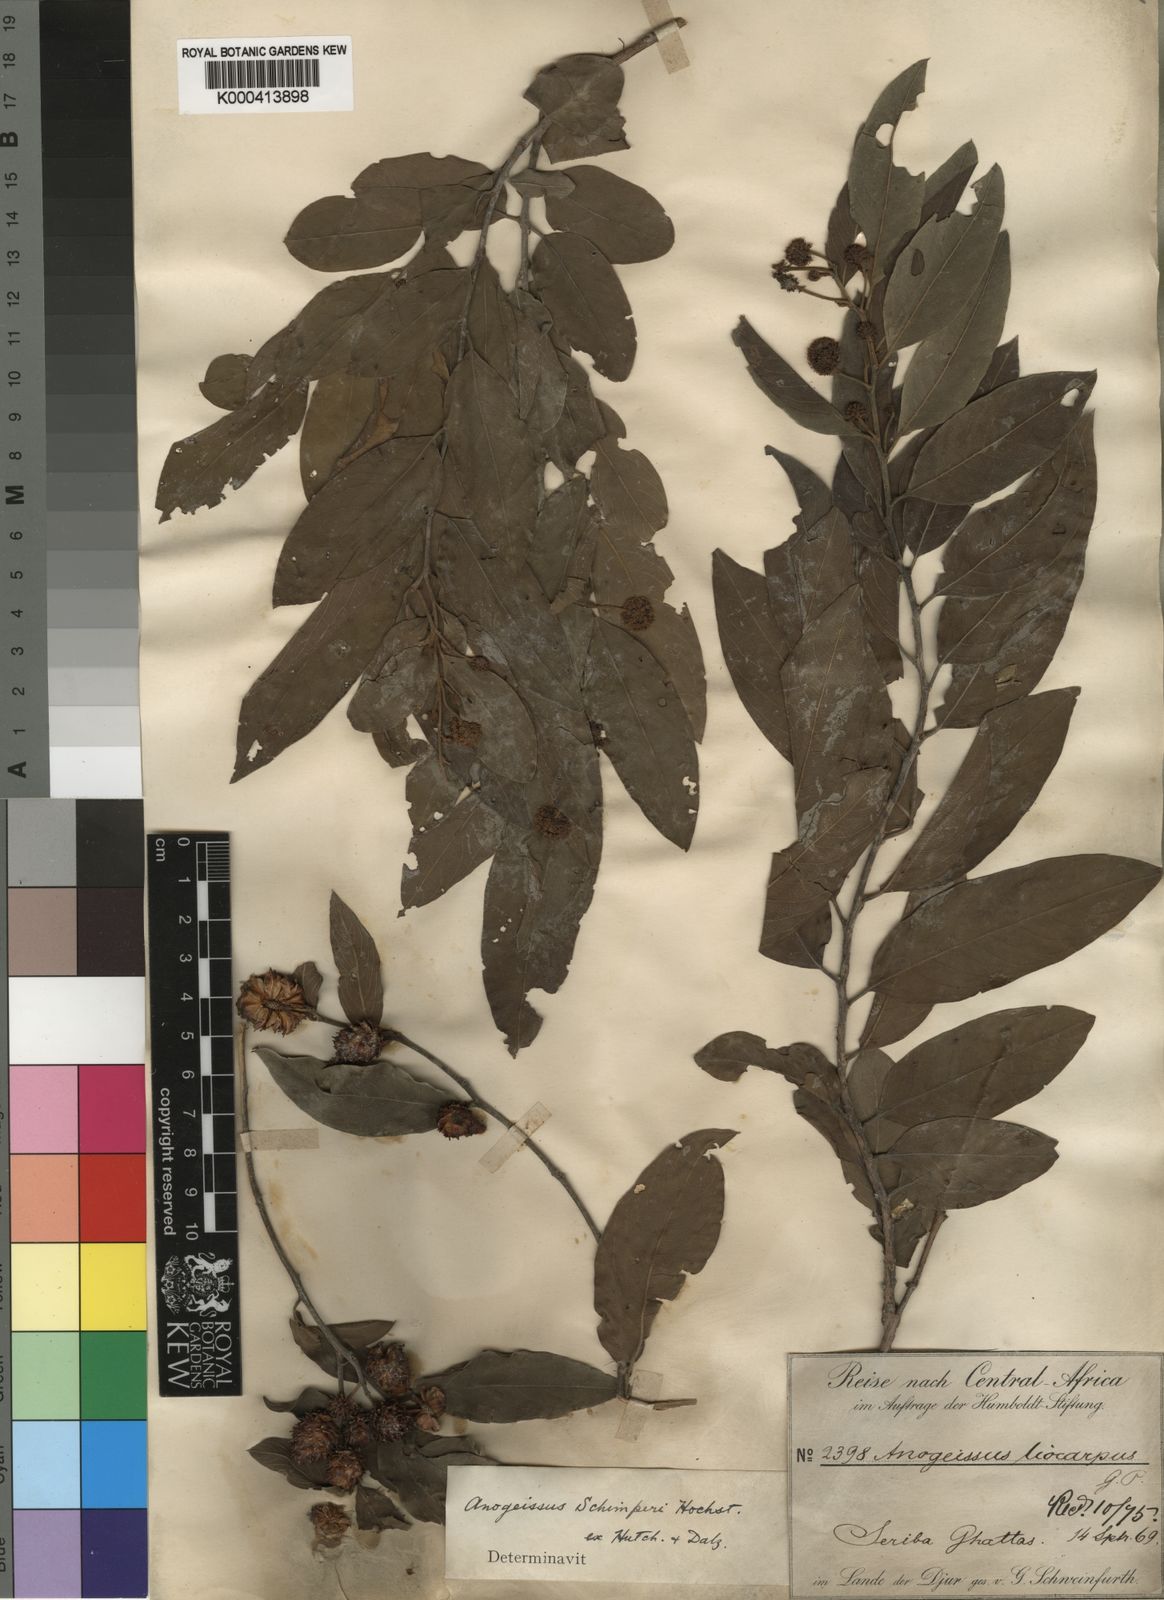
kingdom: Plantae
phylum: Tracheophyta
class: Magnoliopsida
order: Myrtales
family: Combretaceae
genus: Terminalia
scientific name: Terminalia leiocarpa
